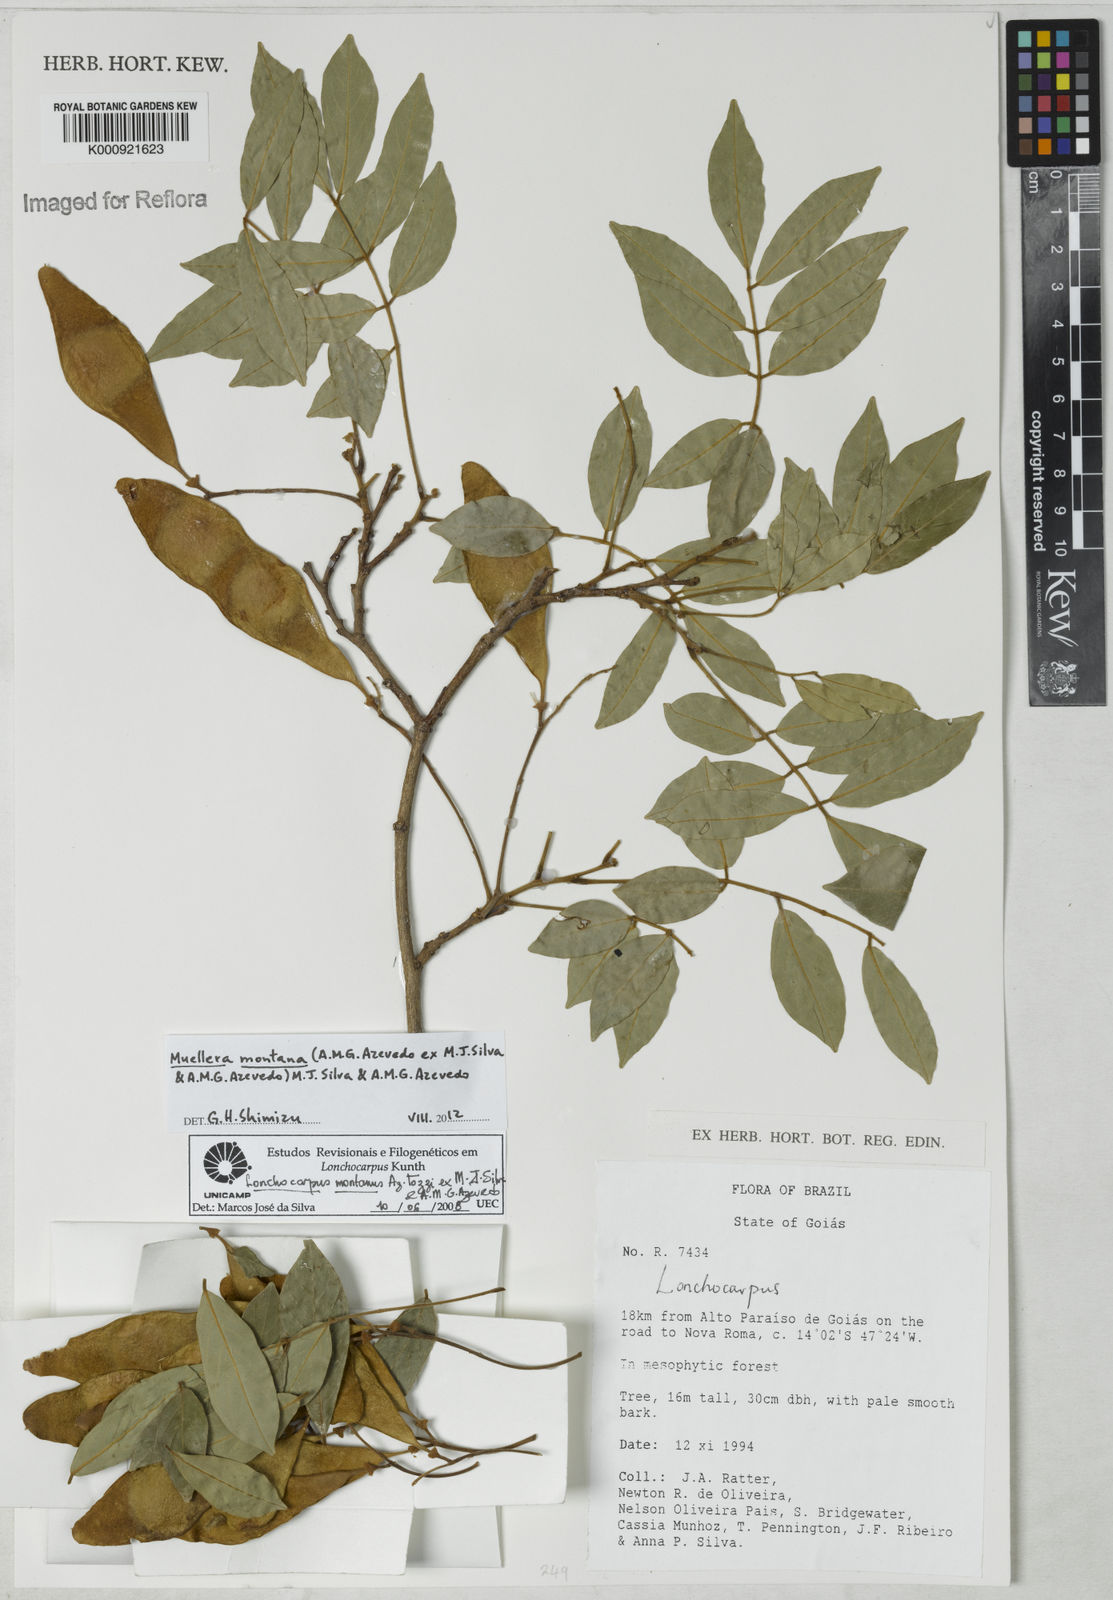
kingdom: Plantae
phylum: Tracheophyta
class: Magnoliopsida
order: Fabales
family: Fabaceae
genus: Muellera
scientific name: Muellera montana
